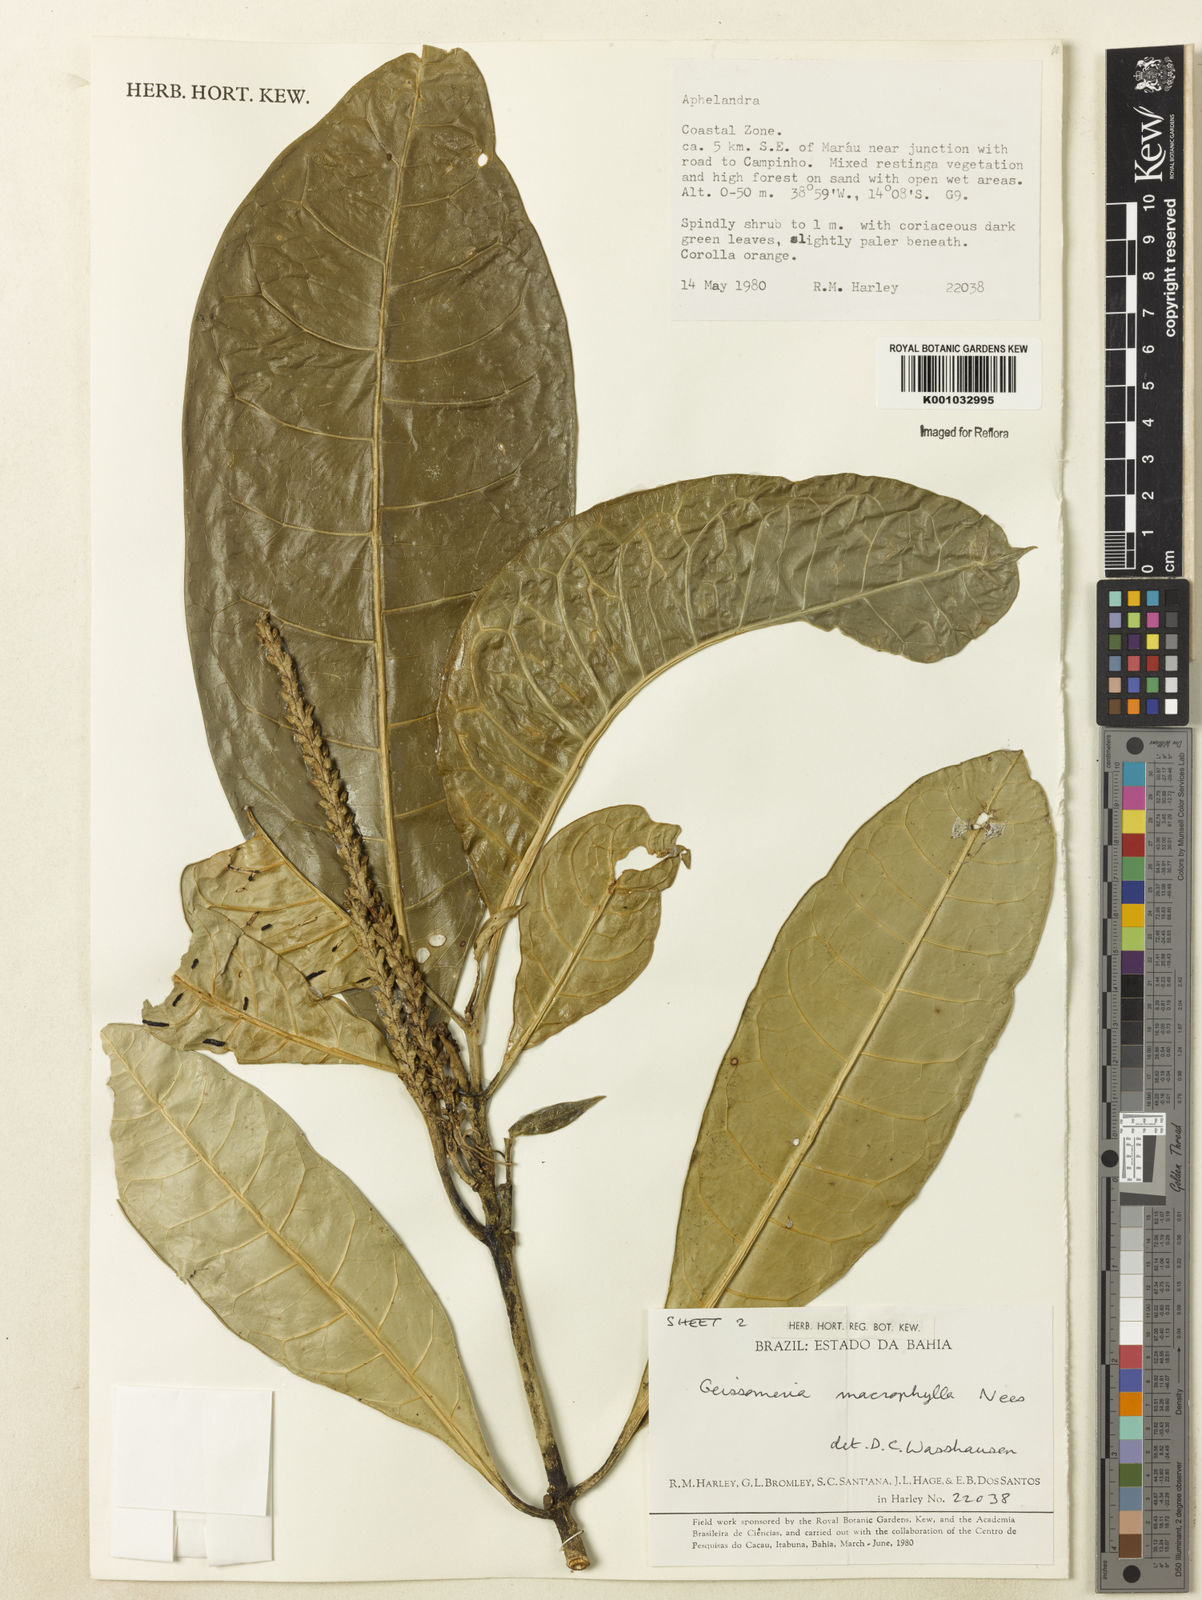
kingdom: Plantae
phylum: Tracheophyta
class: Magnoliopsida
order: Lamiales
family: Acanthaceae
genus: Aphelandra
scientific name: Aphelandra nitida
